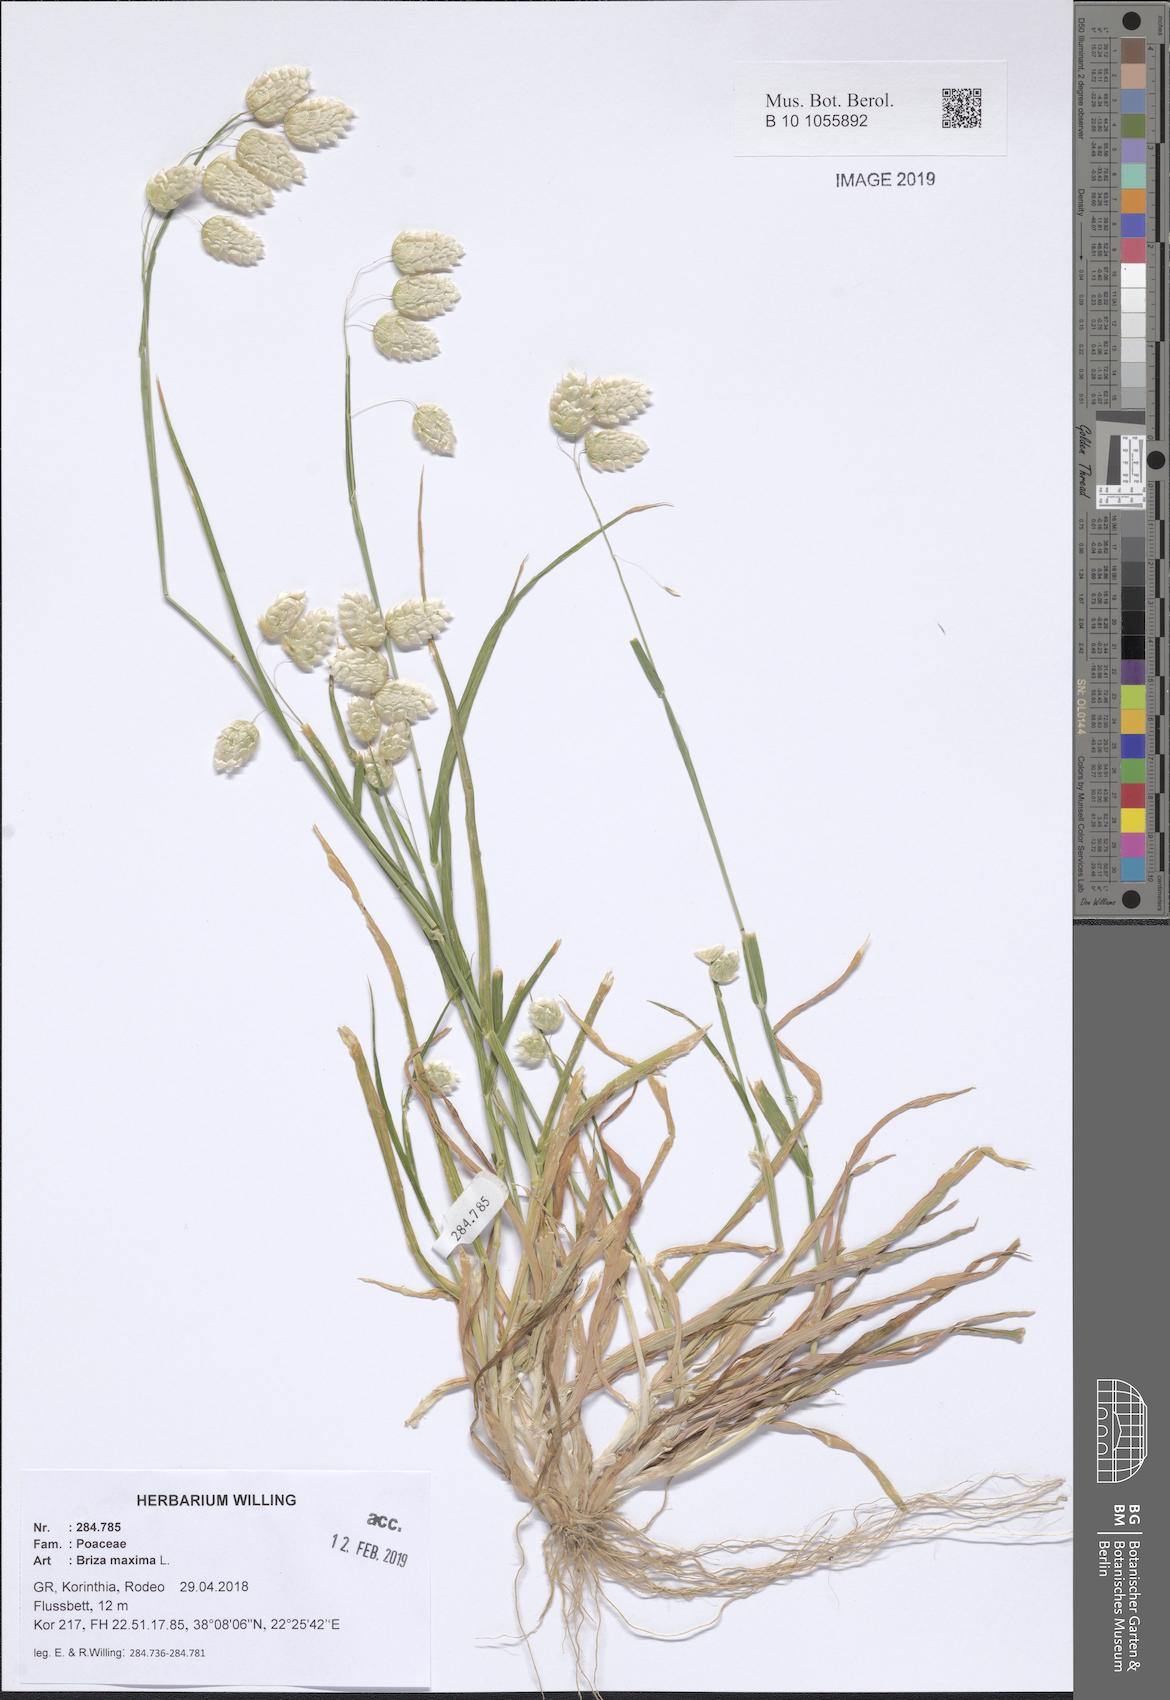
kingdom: Plantae
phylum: Tracheophyta
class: Liliopsida
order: Poales
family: Poaceae
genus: Briza
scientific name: Briza maxima
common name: Big quakinggrass
